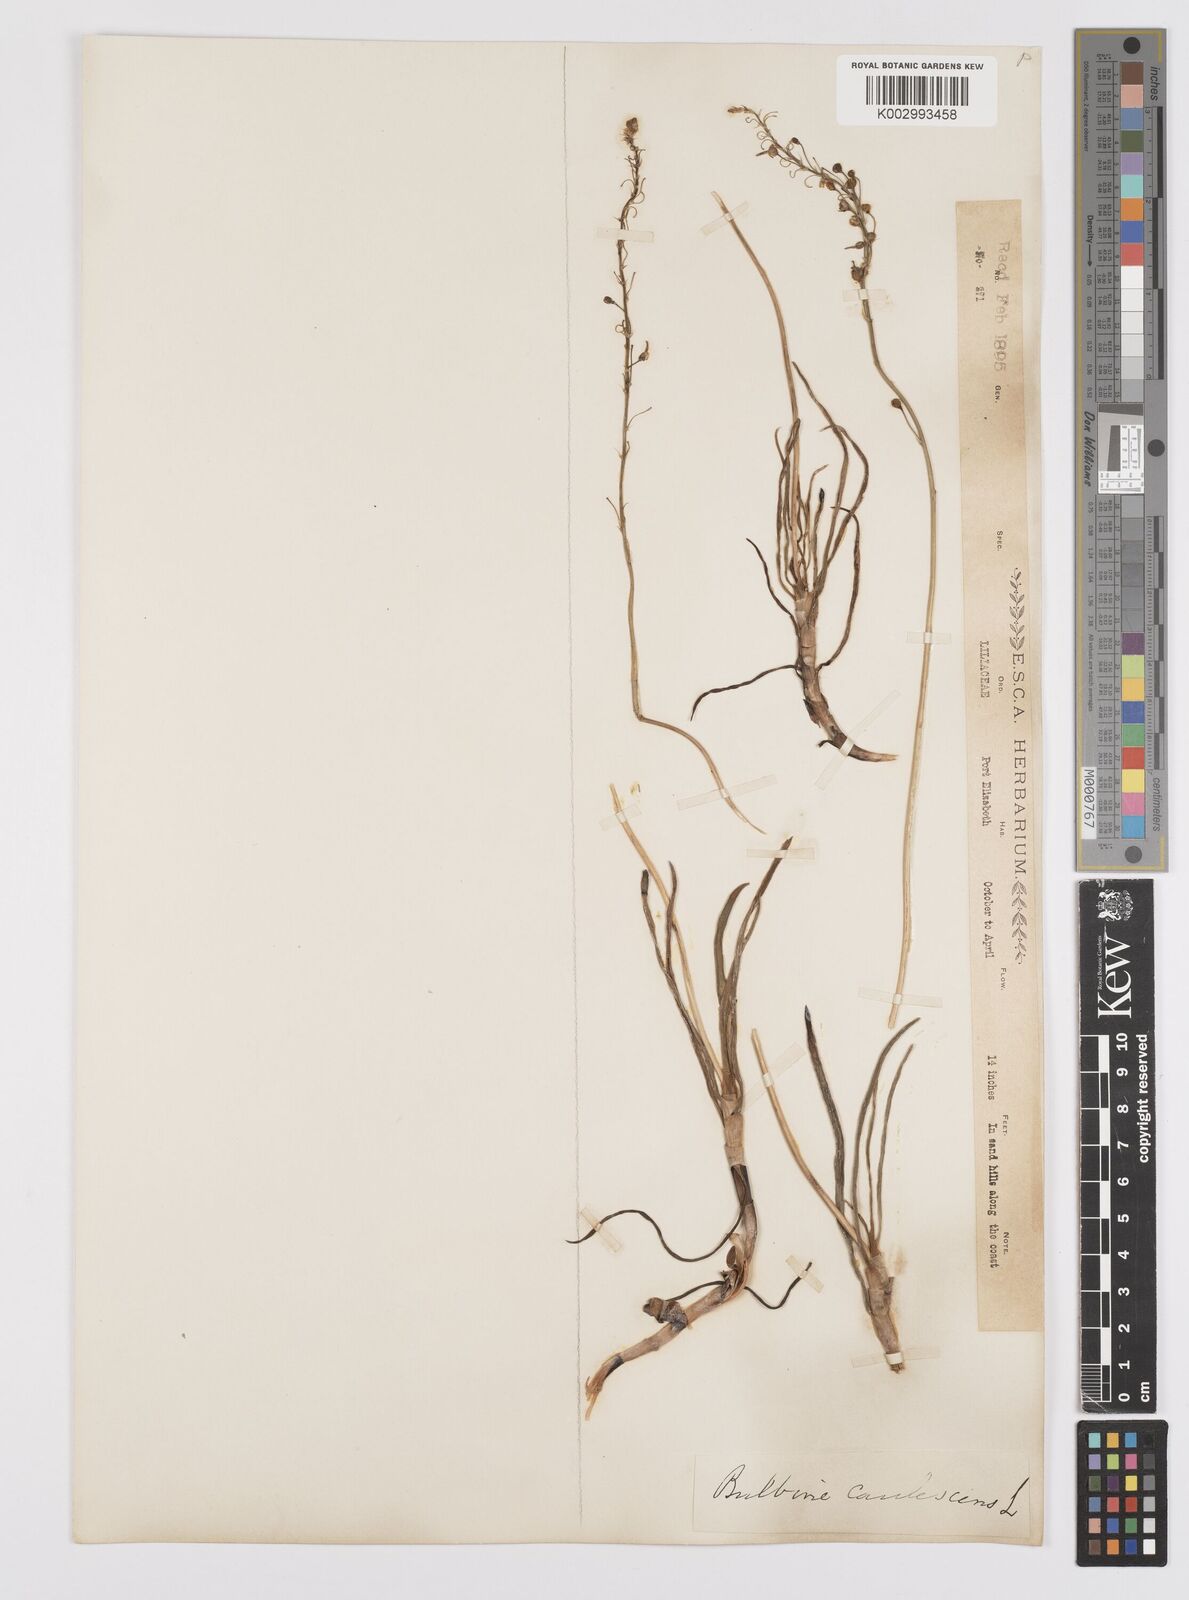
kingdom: Plantae
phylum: Tracheophyta
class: Liliopsida
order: Asparagales
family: Asphodelaceae
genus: Bulbine
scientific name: Bulbine frutescens
